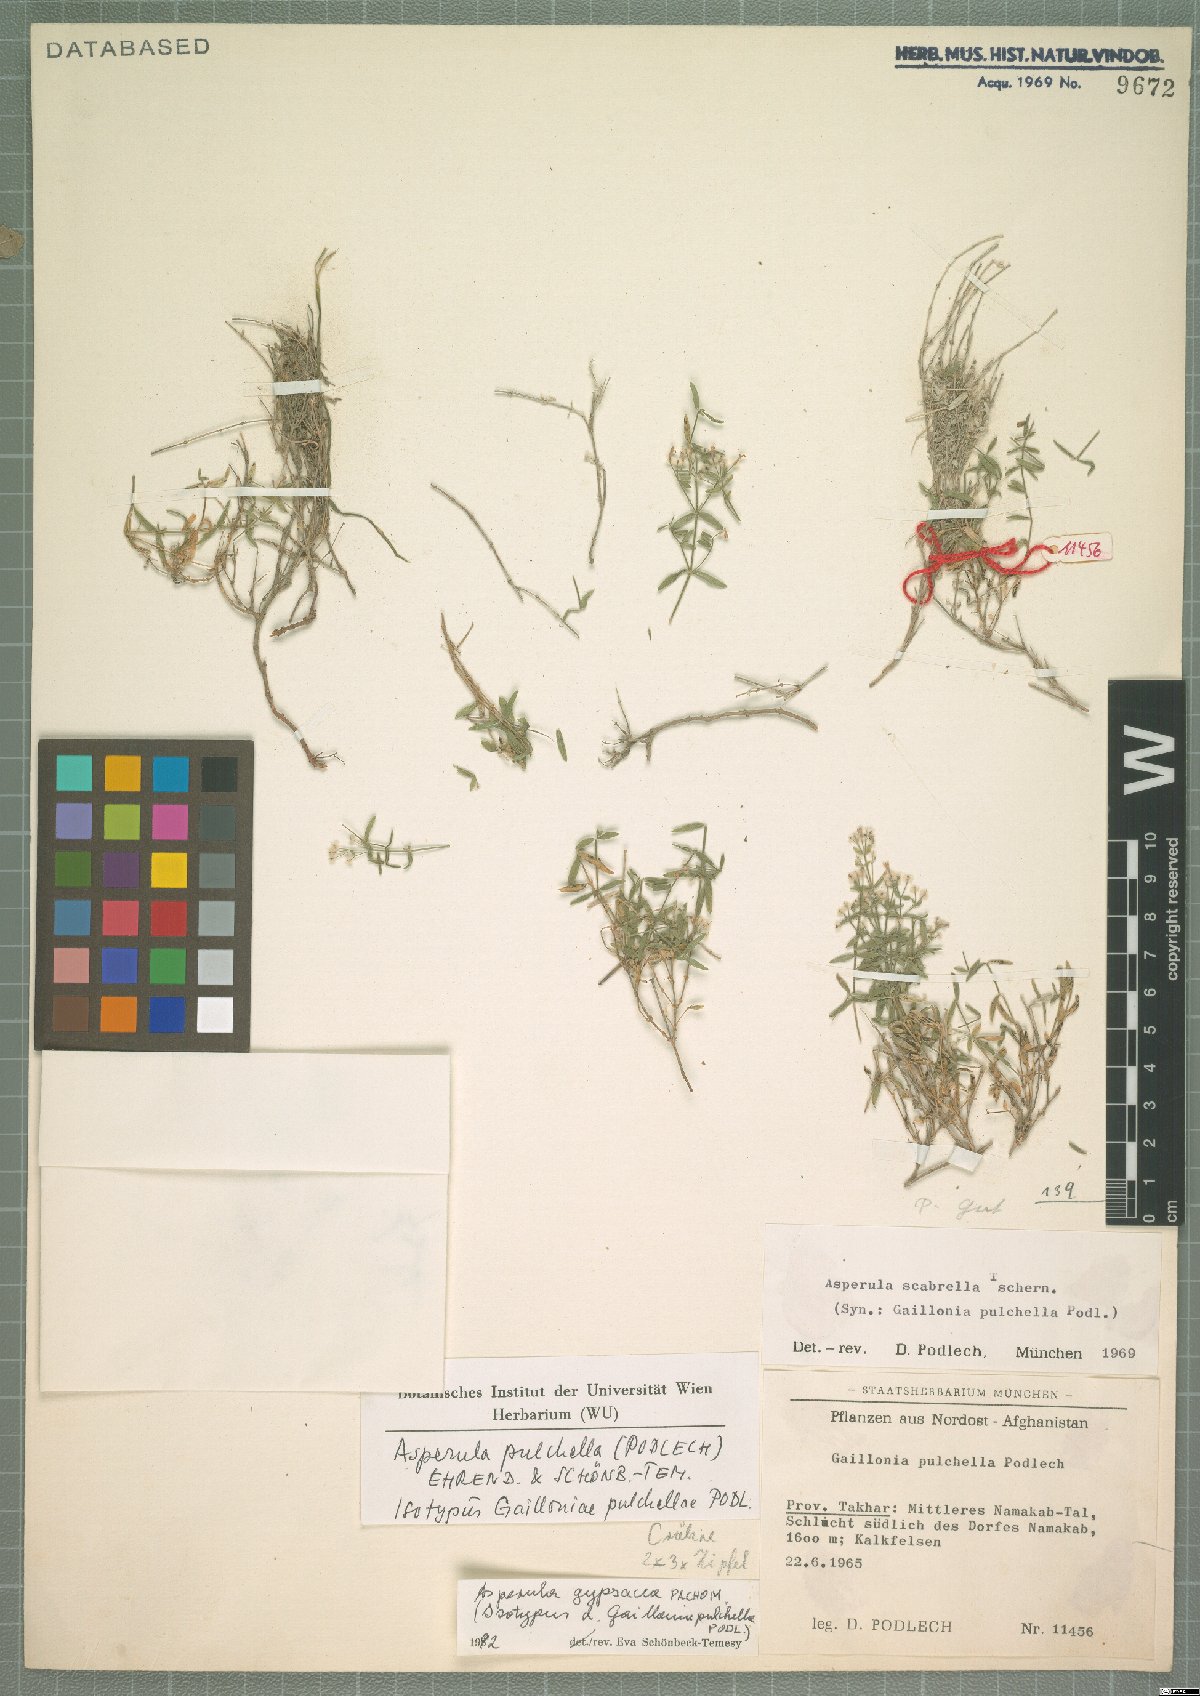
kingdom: Plantae
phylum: Tracheophyta
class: Magnoliopsida
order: Gentianales
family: Rubiaceae
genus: Asperula
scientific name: Asperula pulchella
